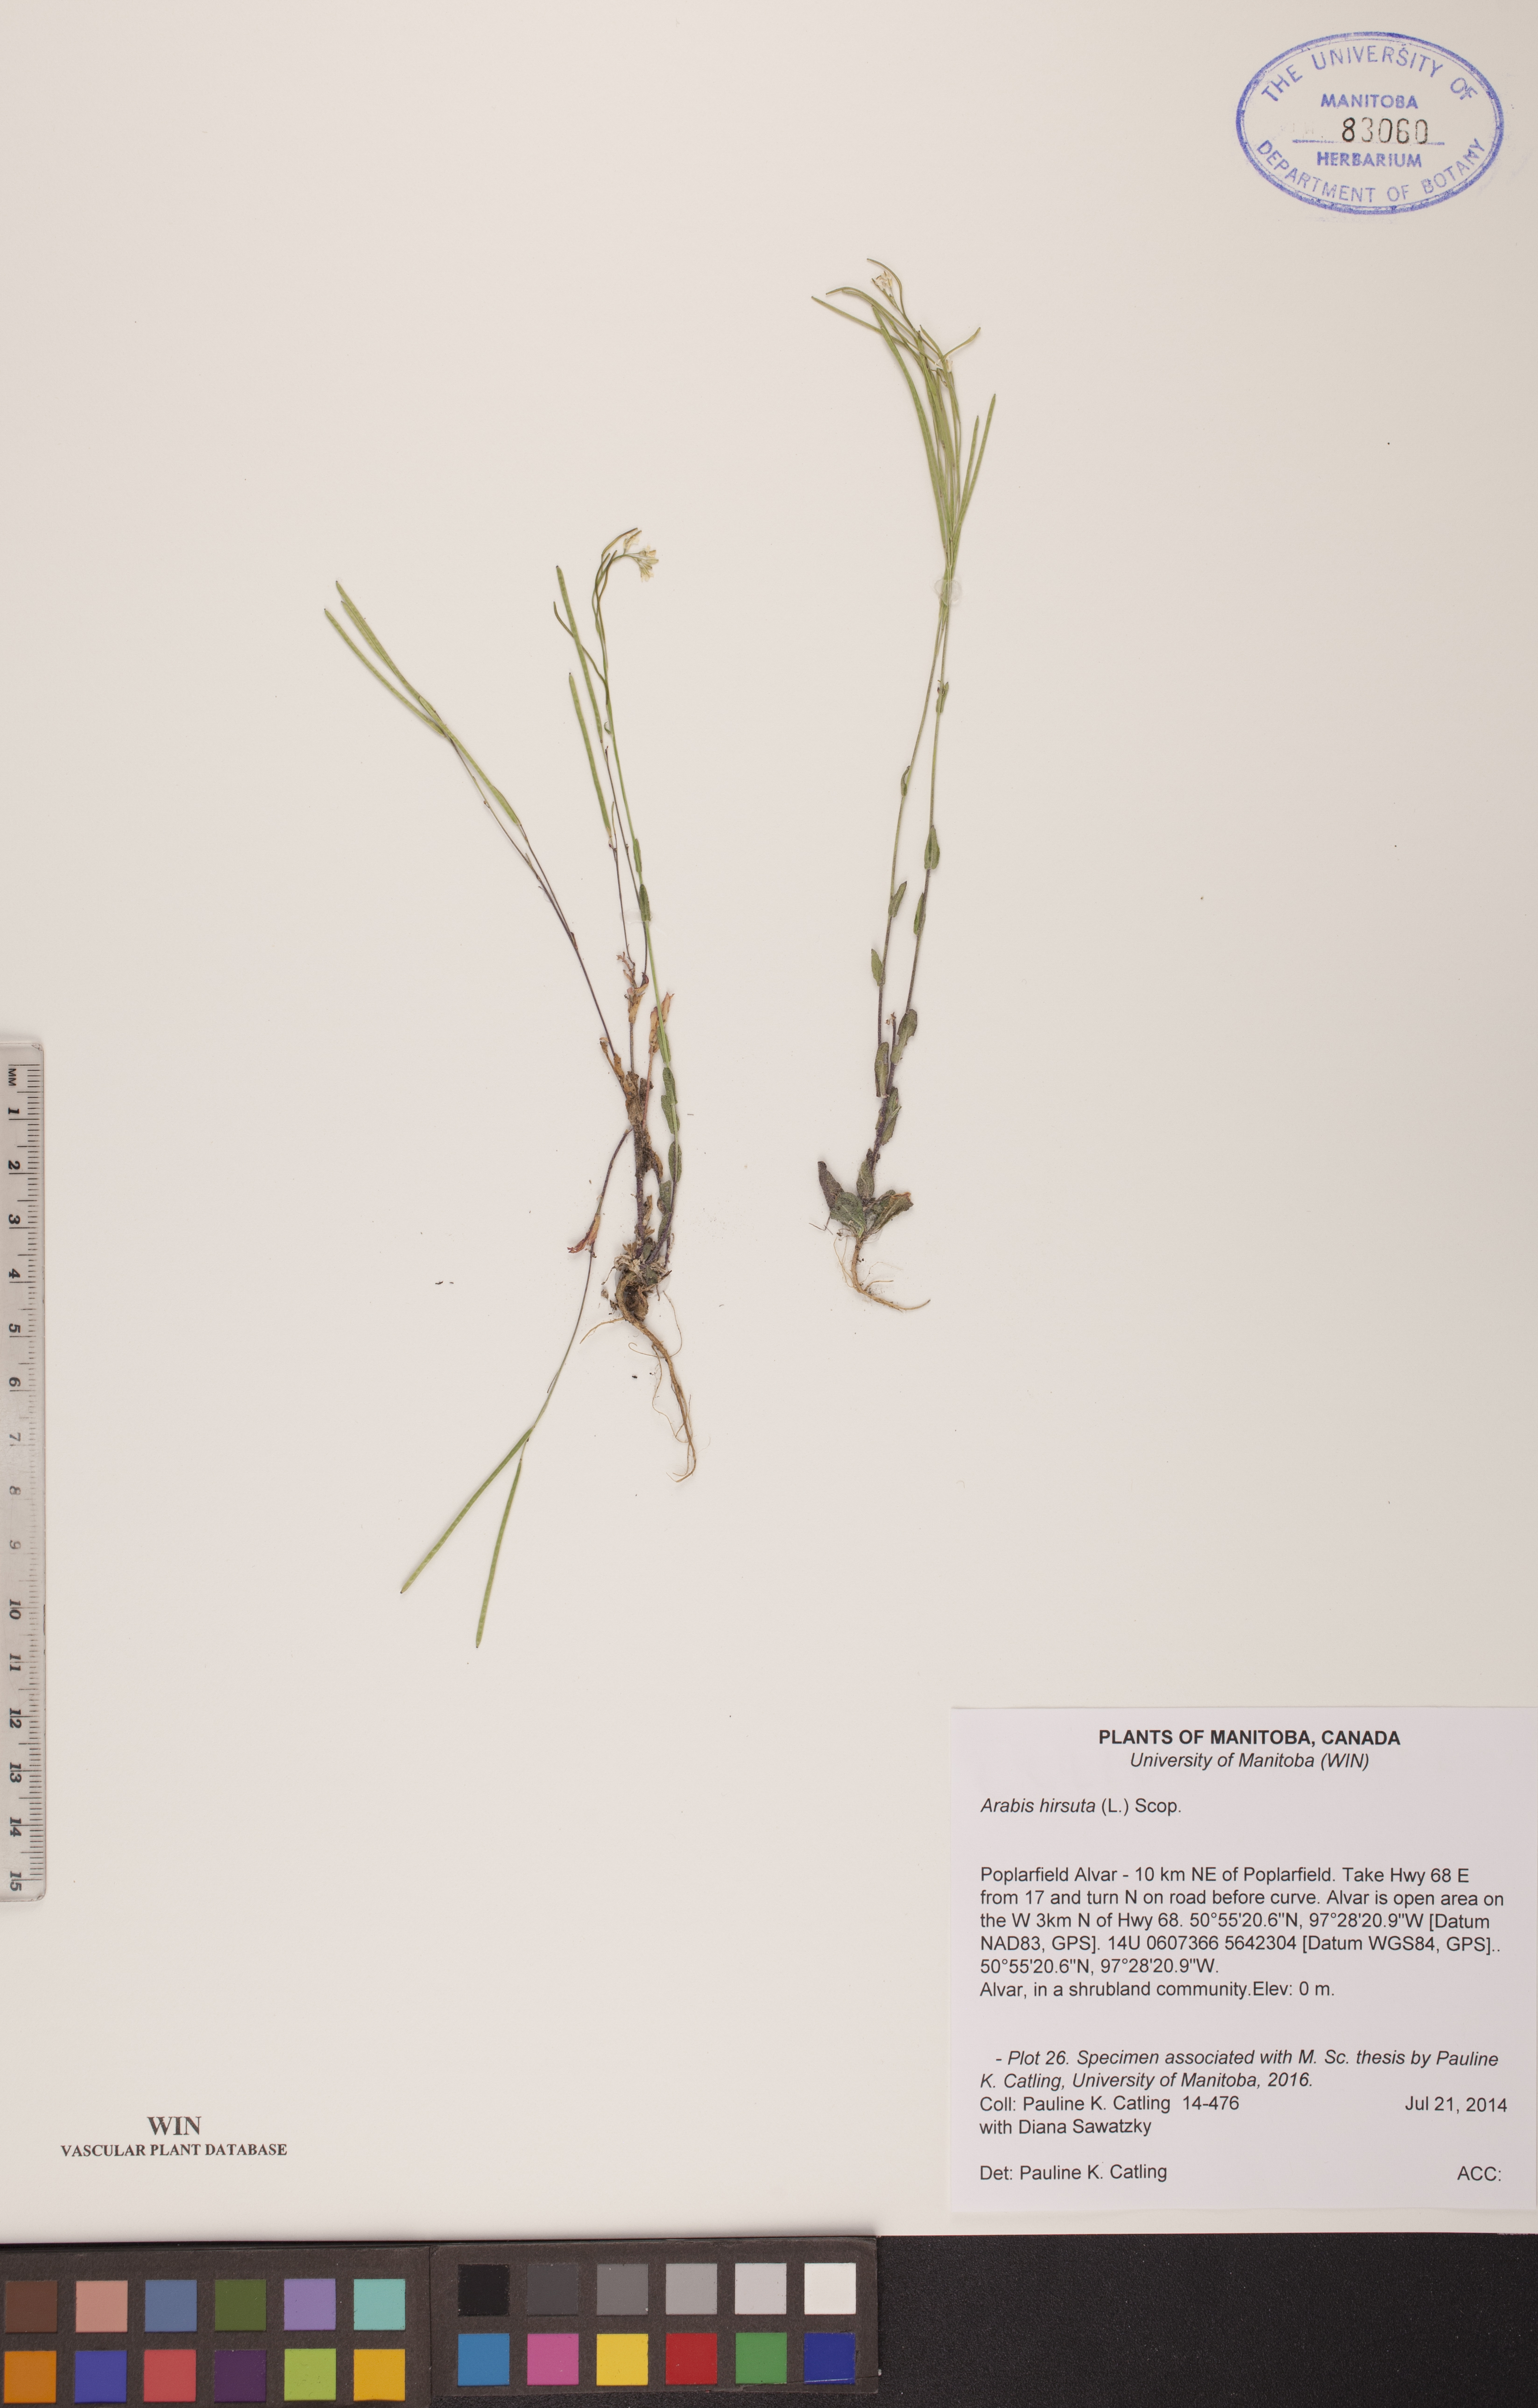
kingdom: Plantae
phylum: Tracheophyta
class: Magnoliopsida
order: Brassicales
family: Brassicaceae
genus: Arabis
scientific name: Arabis hirsuta
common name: Hairy rock-cress
